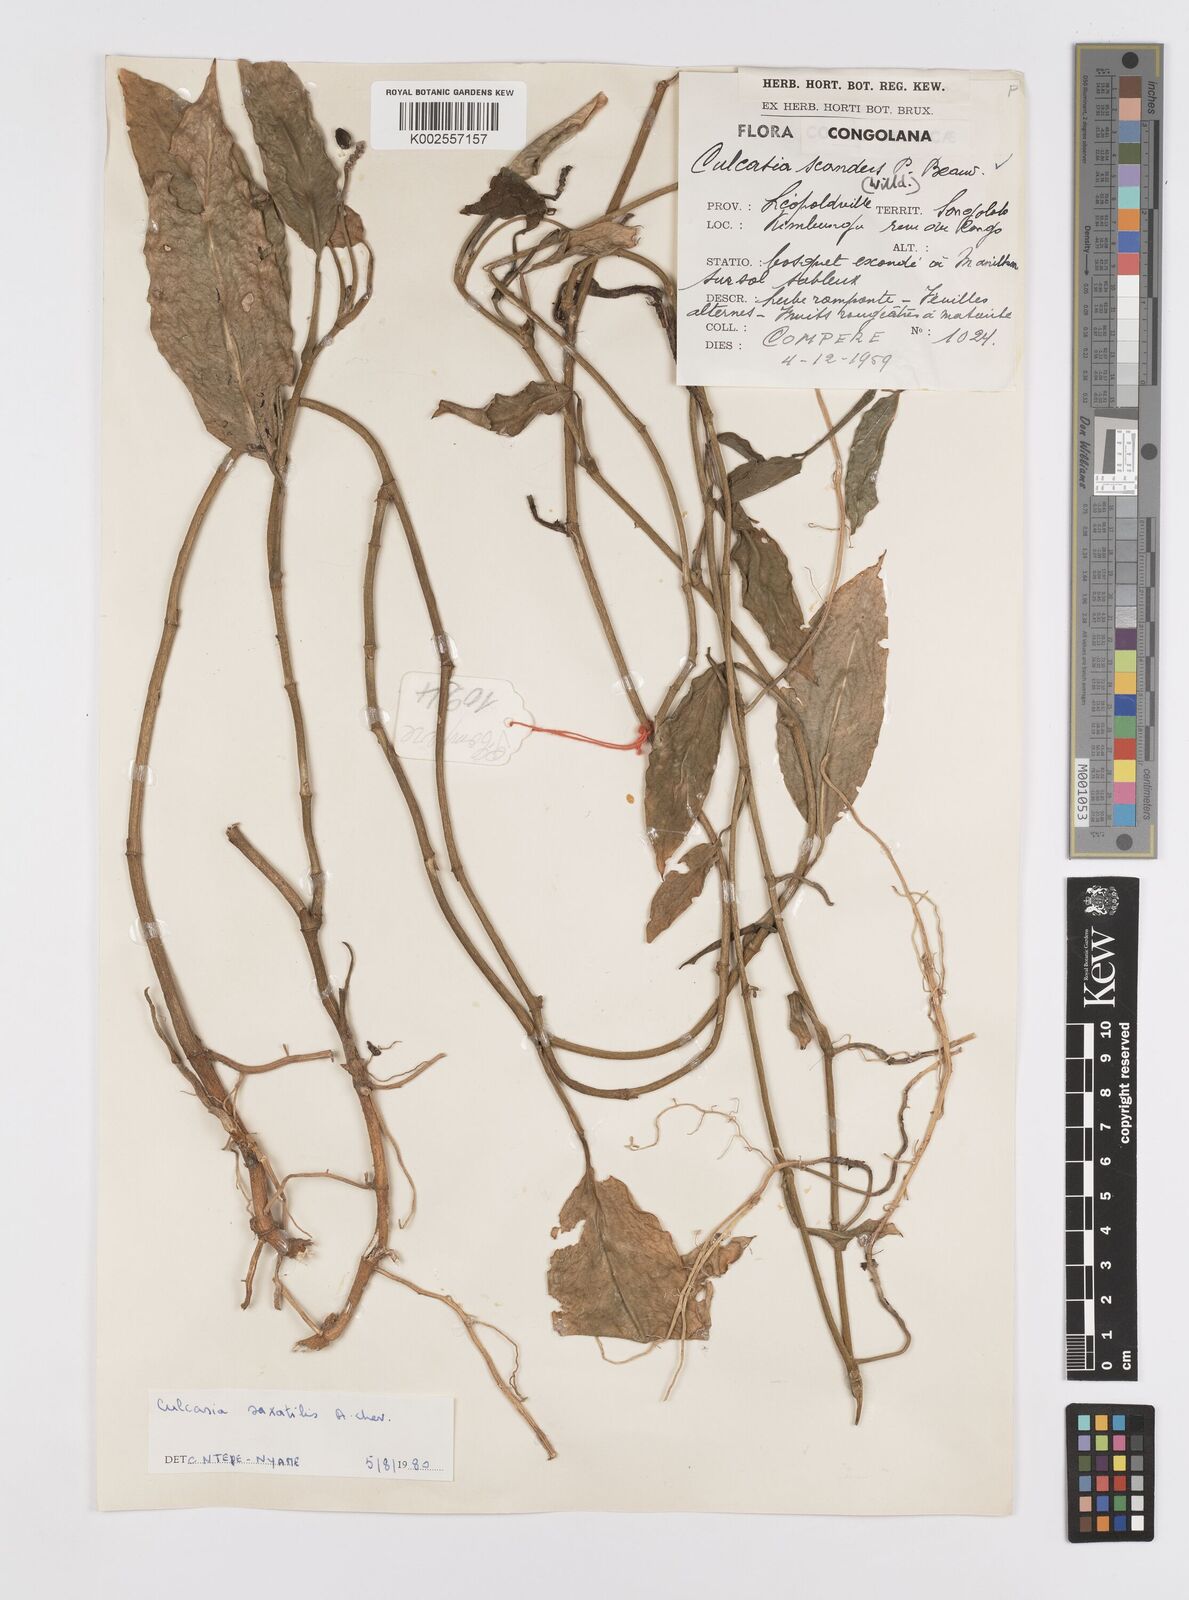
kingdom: Plantae
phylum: Tracheophyta
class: Liliopsida
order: Alismatales
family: Araceae
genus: Culcasia
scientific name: Culcasia scandens
